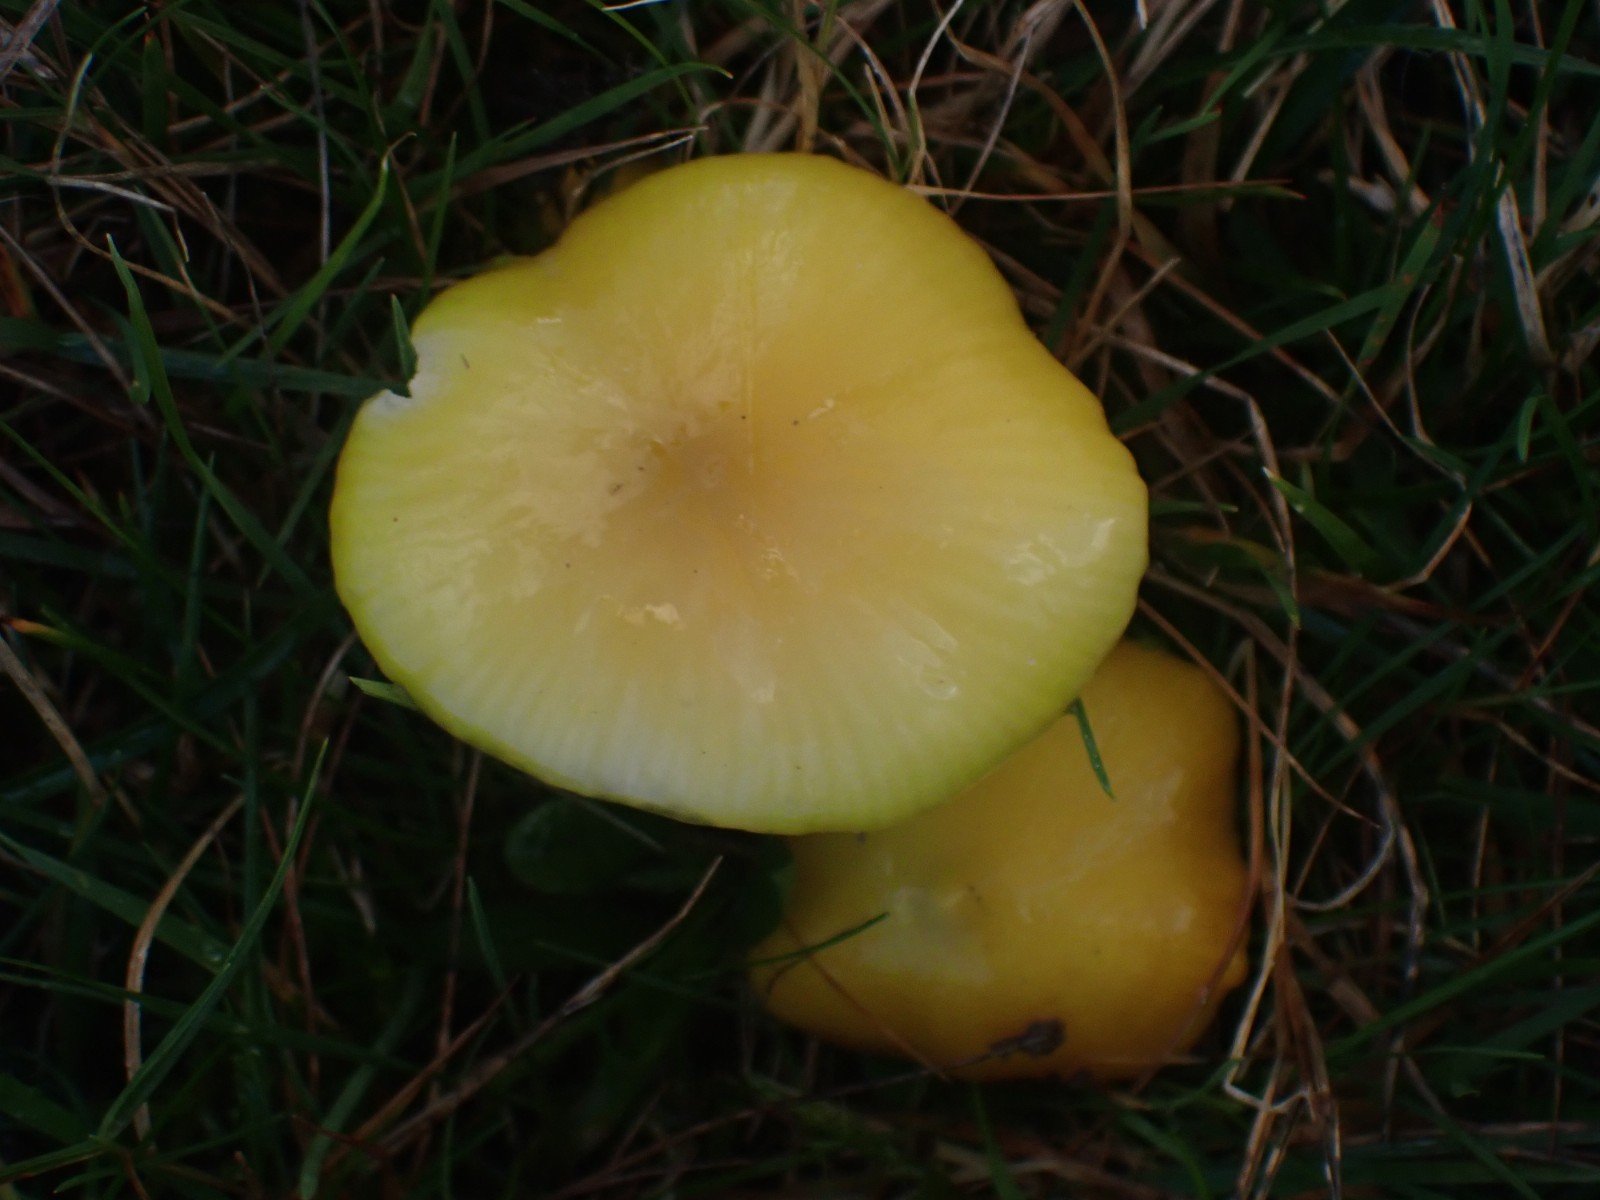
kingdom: Fungi
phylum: Basidiomycota
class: Agaricomycetes
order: Agaricales
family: Hygrophoraceae
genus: Hygrocybe
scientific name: Hygrocybe chlorophana
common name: gul vokshat
